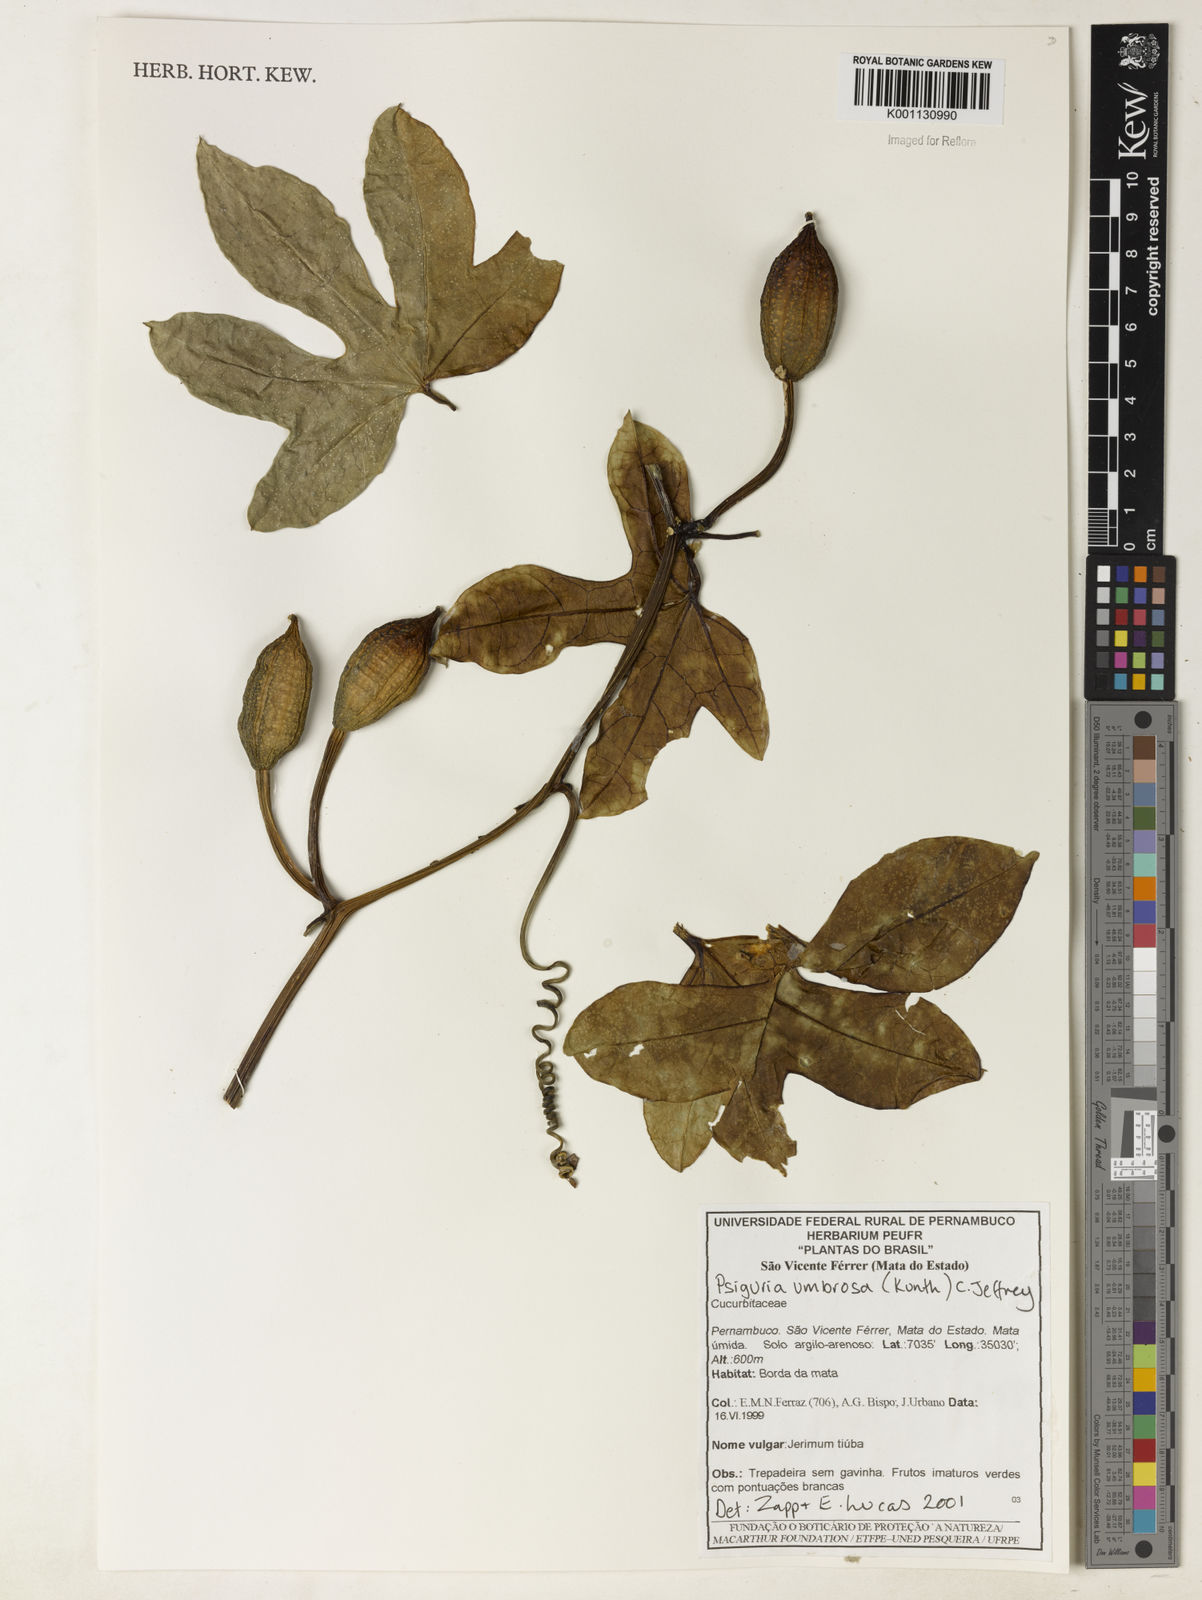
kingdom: Plantae
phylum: Tracheophyta
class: Magnoliopsida
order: Cucurbitales
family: Cucurbitaceae
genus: Psiguria
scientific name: Psiguria umbrosa
